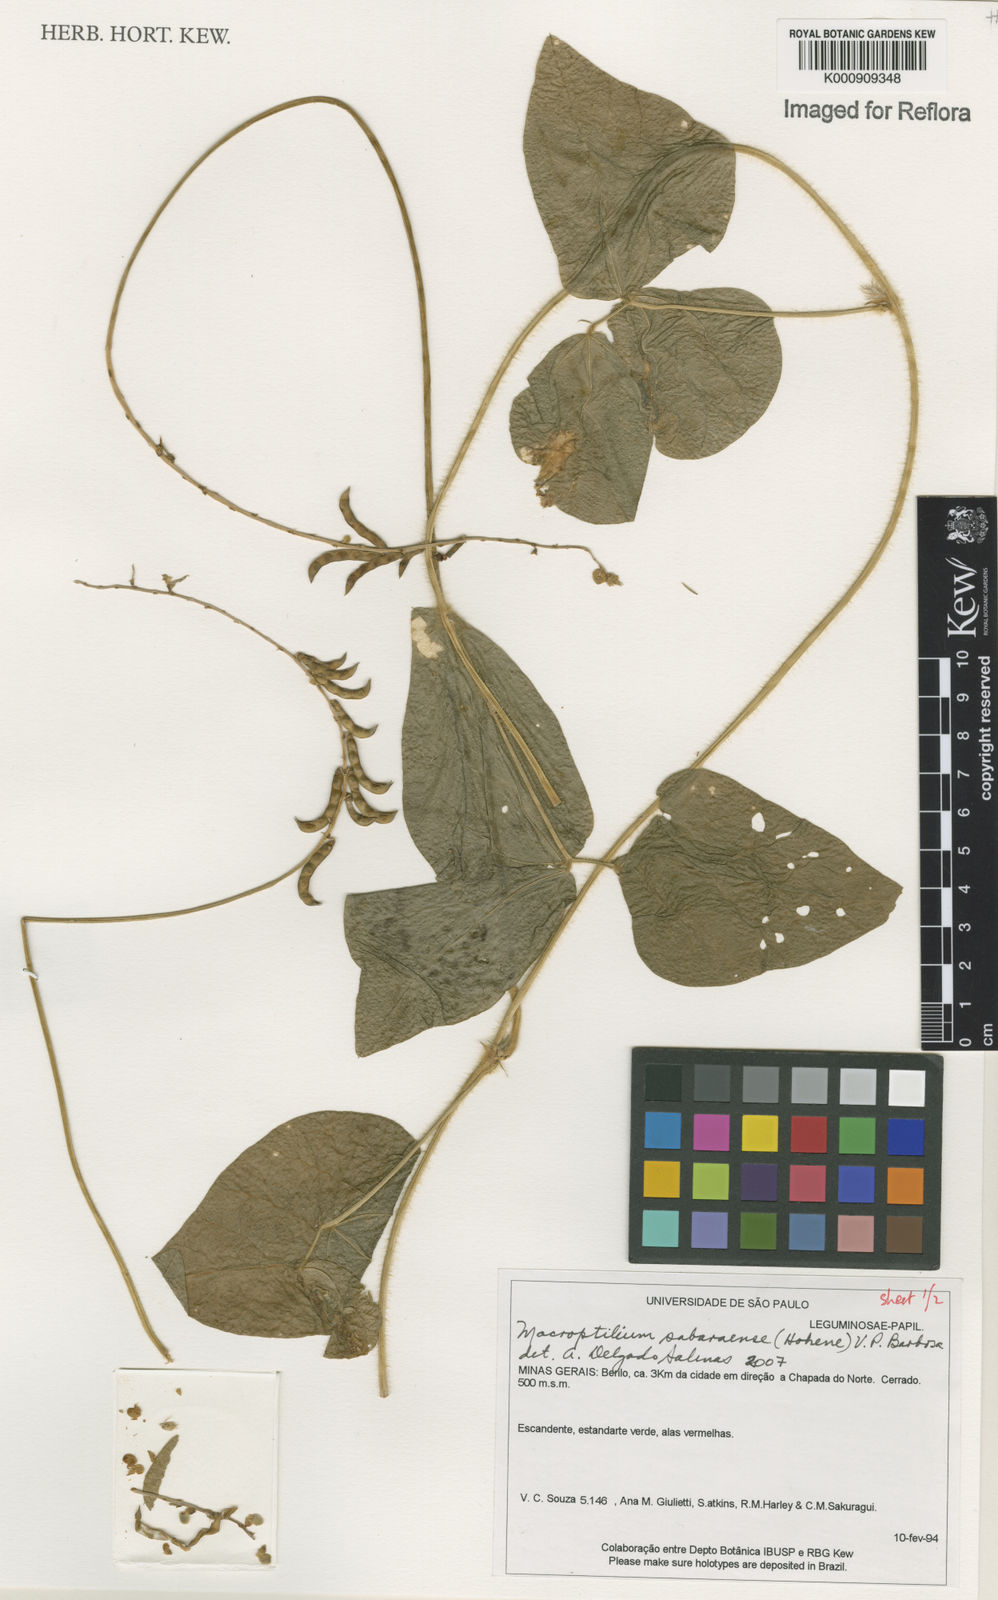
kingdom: Plantae
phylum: Tracheophyta
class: Magnoliopsida
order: Fabales
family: Fabaceae
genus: Macroptilium
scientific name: Macroptilium sabaraense
